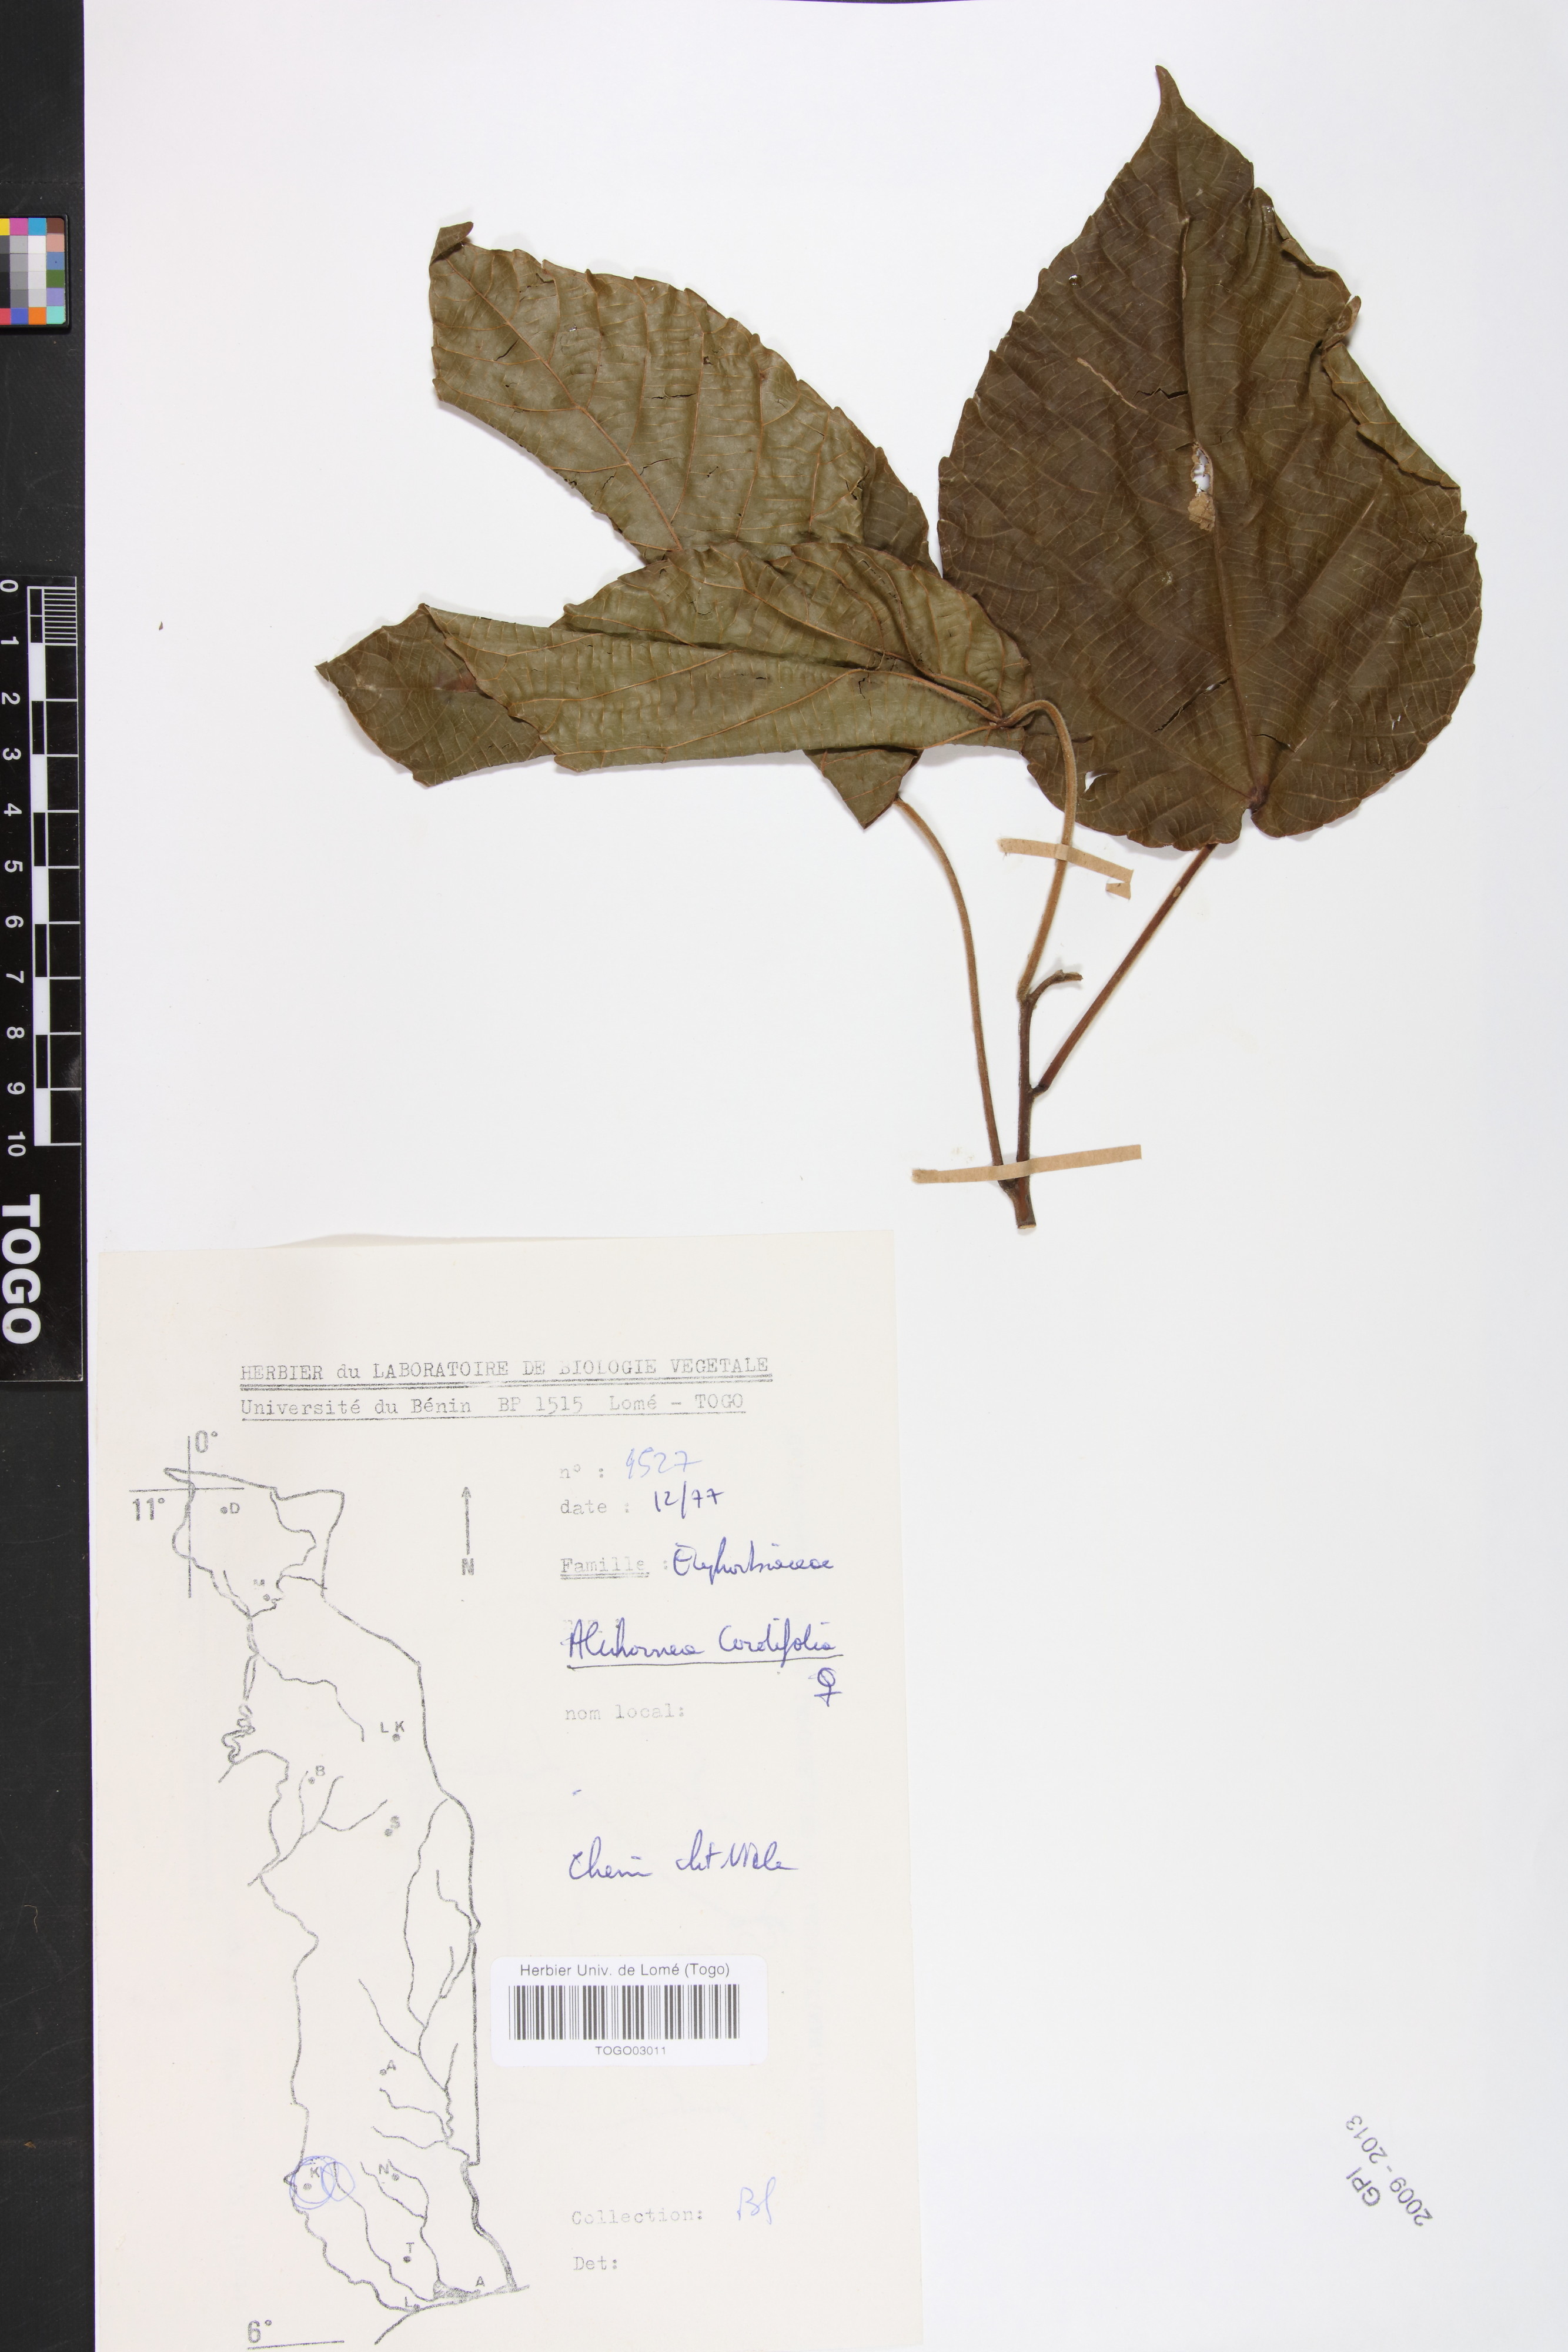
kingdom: Plantae
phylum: Tracheophyta
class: Magnoliopsida
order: Malpighiales
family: Euphorbiaceae
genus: Alchornea
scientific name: Alchornea cordifolia
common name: Christmasbush
